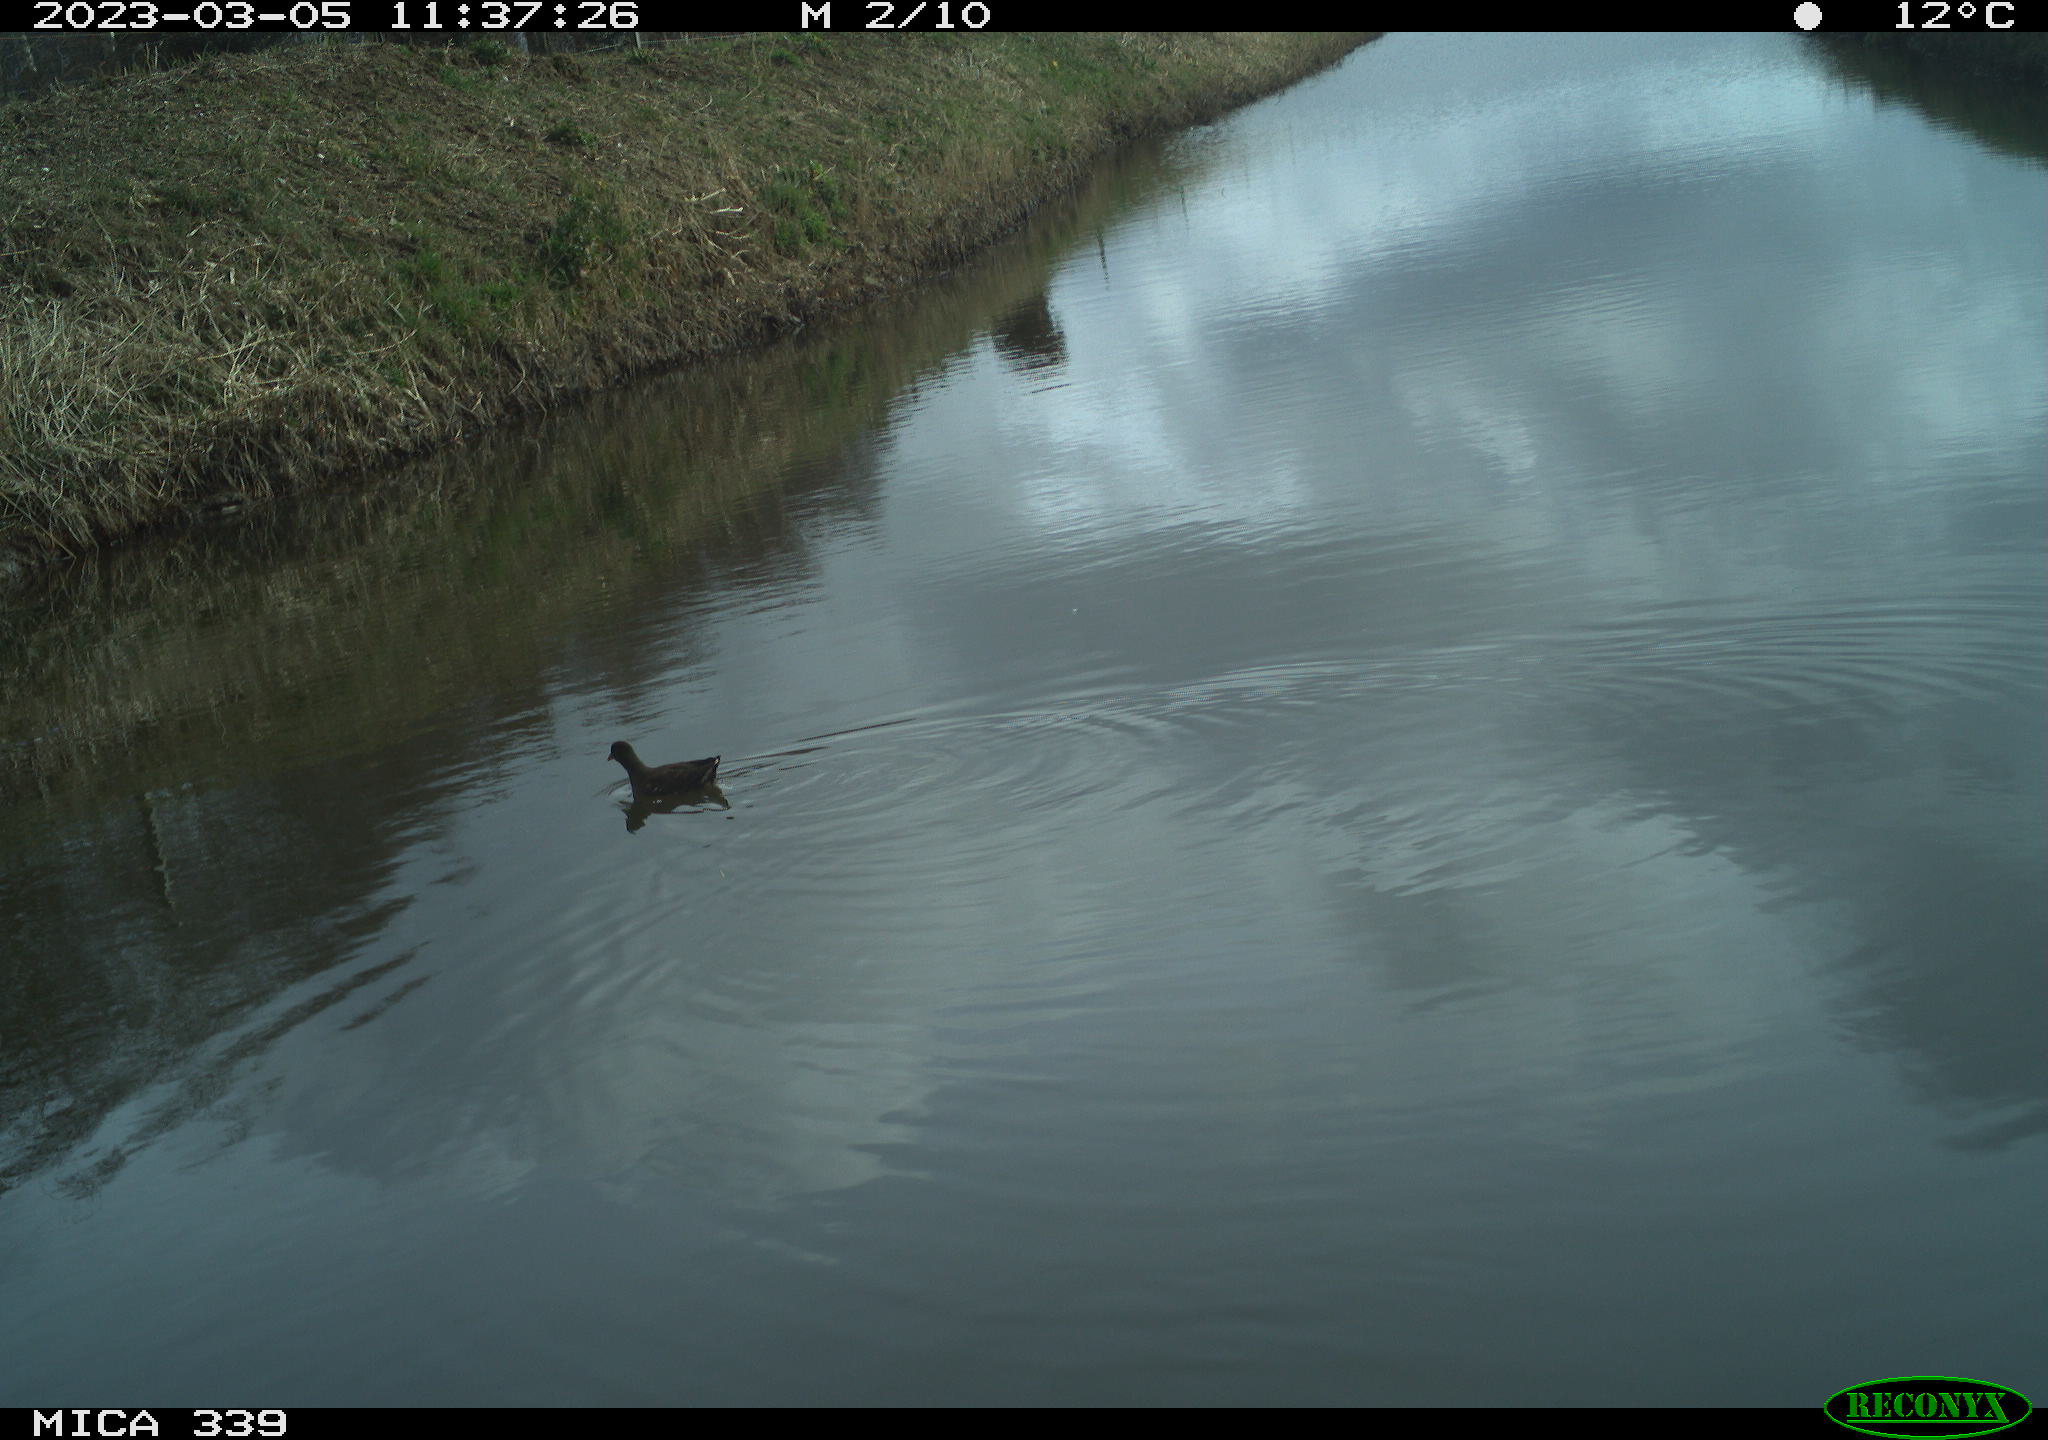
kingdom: Animalia
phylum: Chordata
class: Aves
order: Gruiformes
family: Rallidae
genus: Gallinula
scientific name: Gallinula chloropus
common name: Common moorhen
